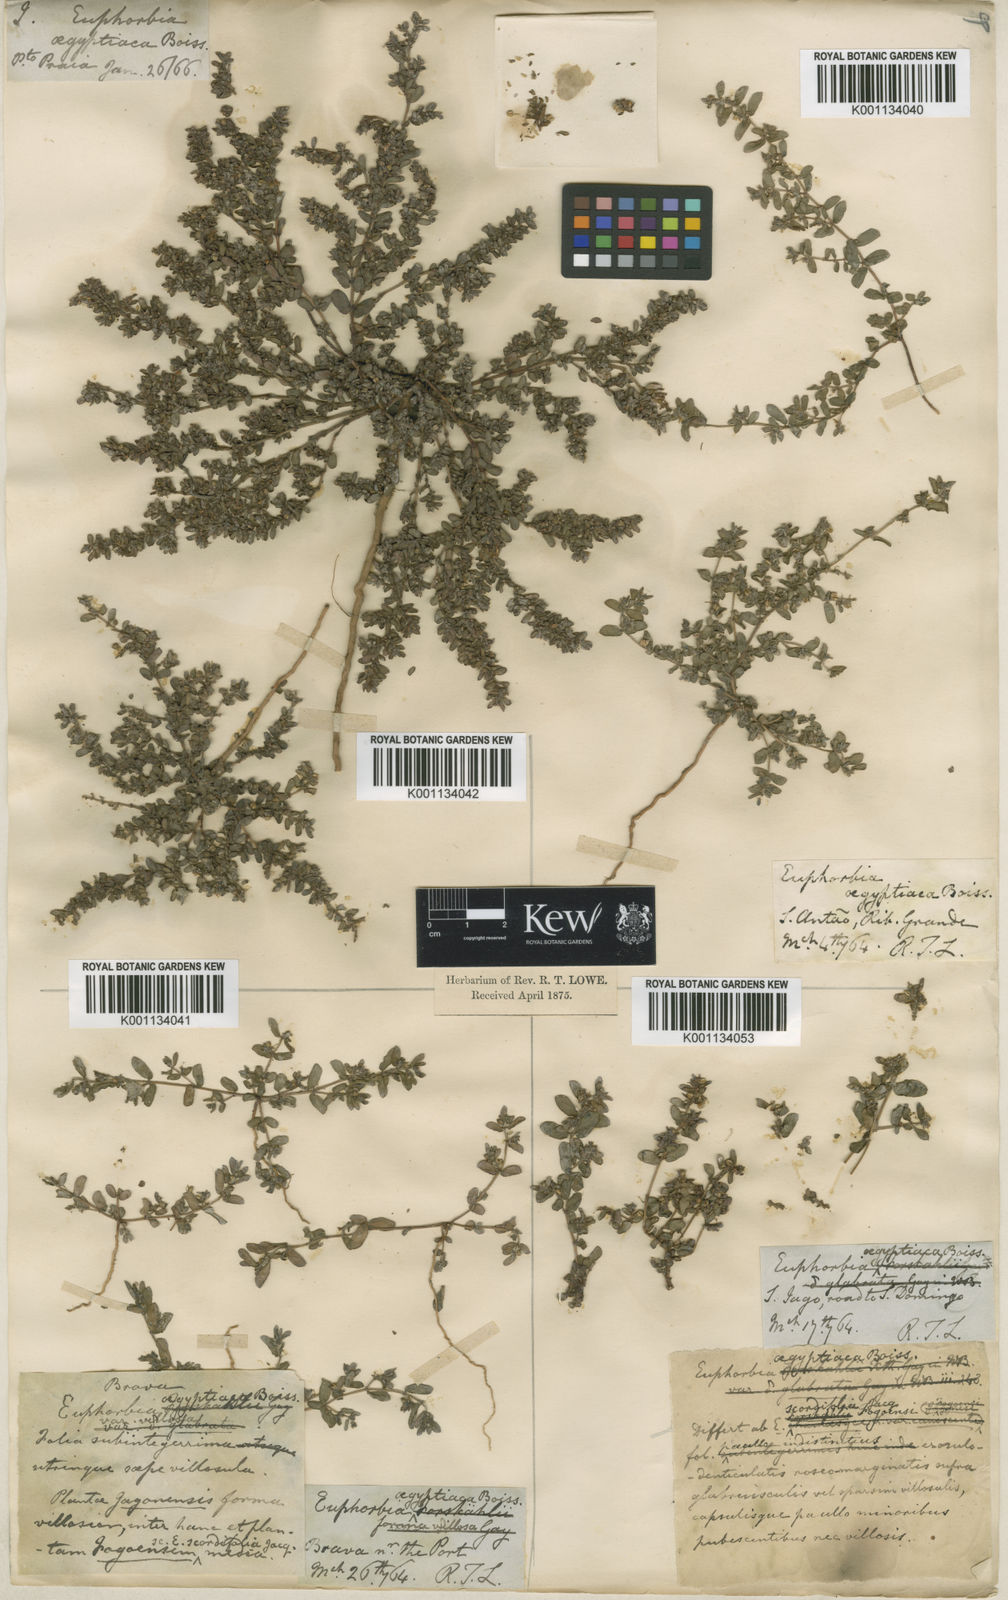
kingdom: Plantae
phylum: Tracheophyta
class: Magnoliopsida
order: Malpighiales
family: Euphorbiaceae
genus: Euphorbia
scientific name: Euphorbia
